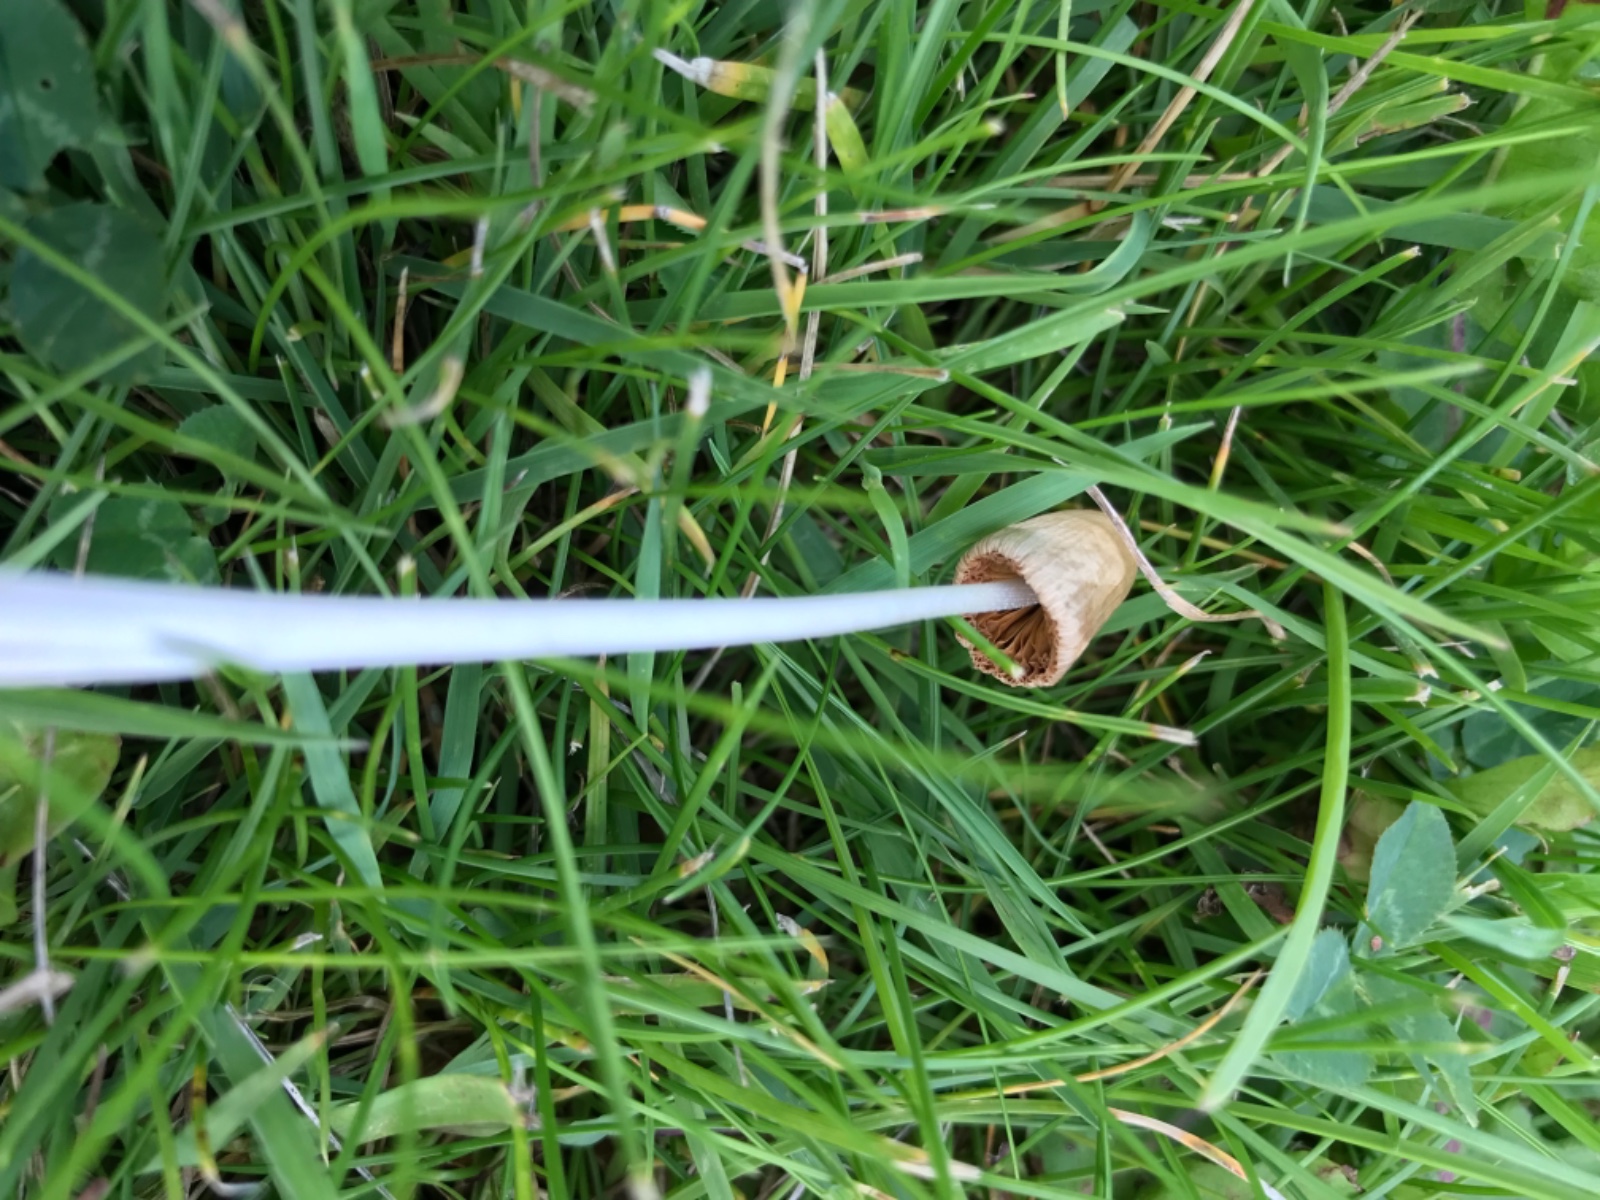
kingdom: Fungi
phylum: Basidiomycota
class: Agaricomycetes
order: Agaricales
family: Bolbitiaceae
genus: Conocybe
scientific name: Conocybe apala
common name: mælkehvid keglehat
